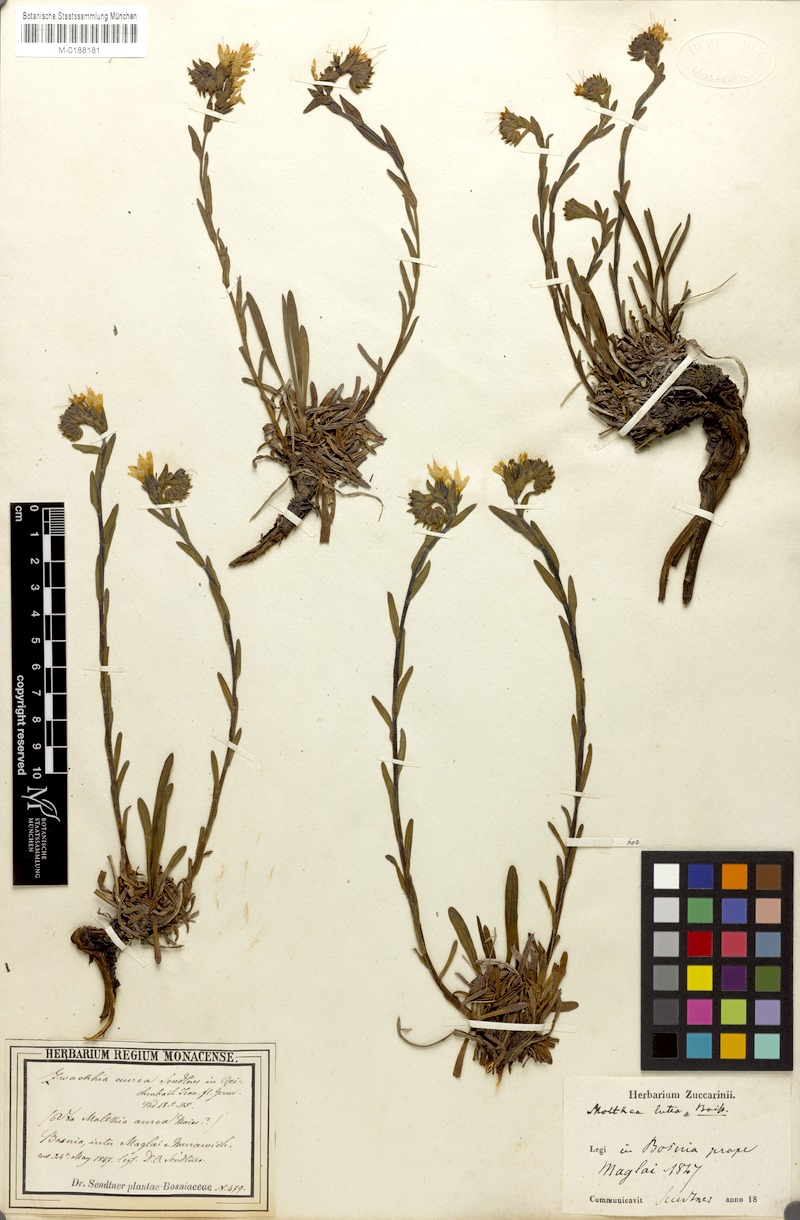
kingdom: Plantae
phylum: Tracheophyta
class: Magnoliopsida
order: Boraginales
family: Boraginaceae
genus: Halacsya
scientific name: Halacsya sendtneri
